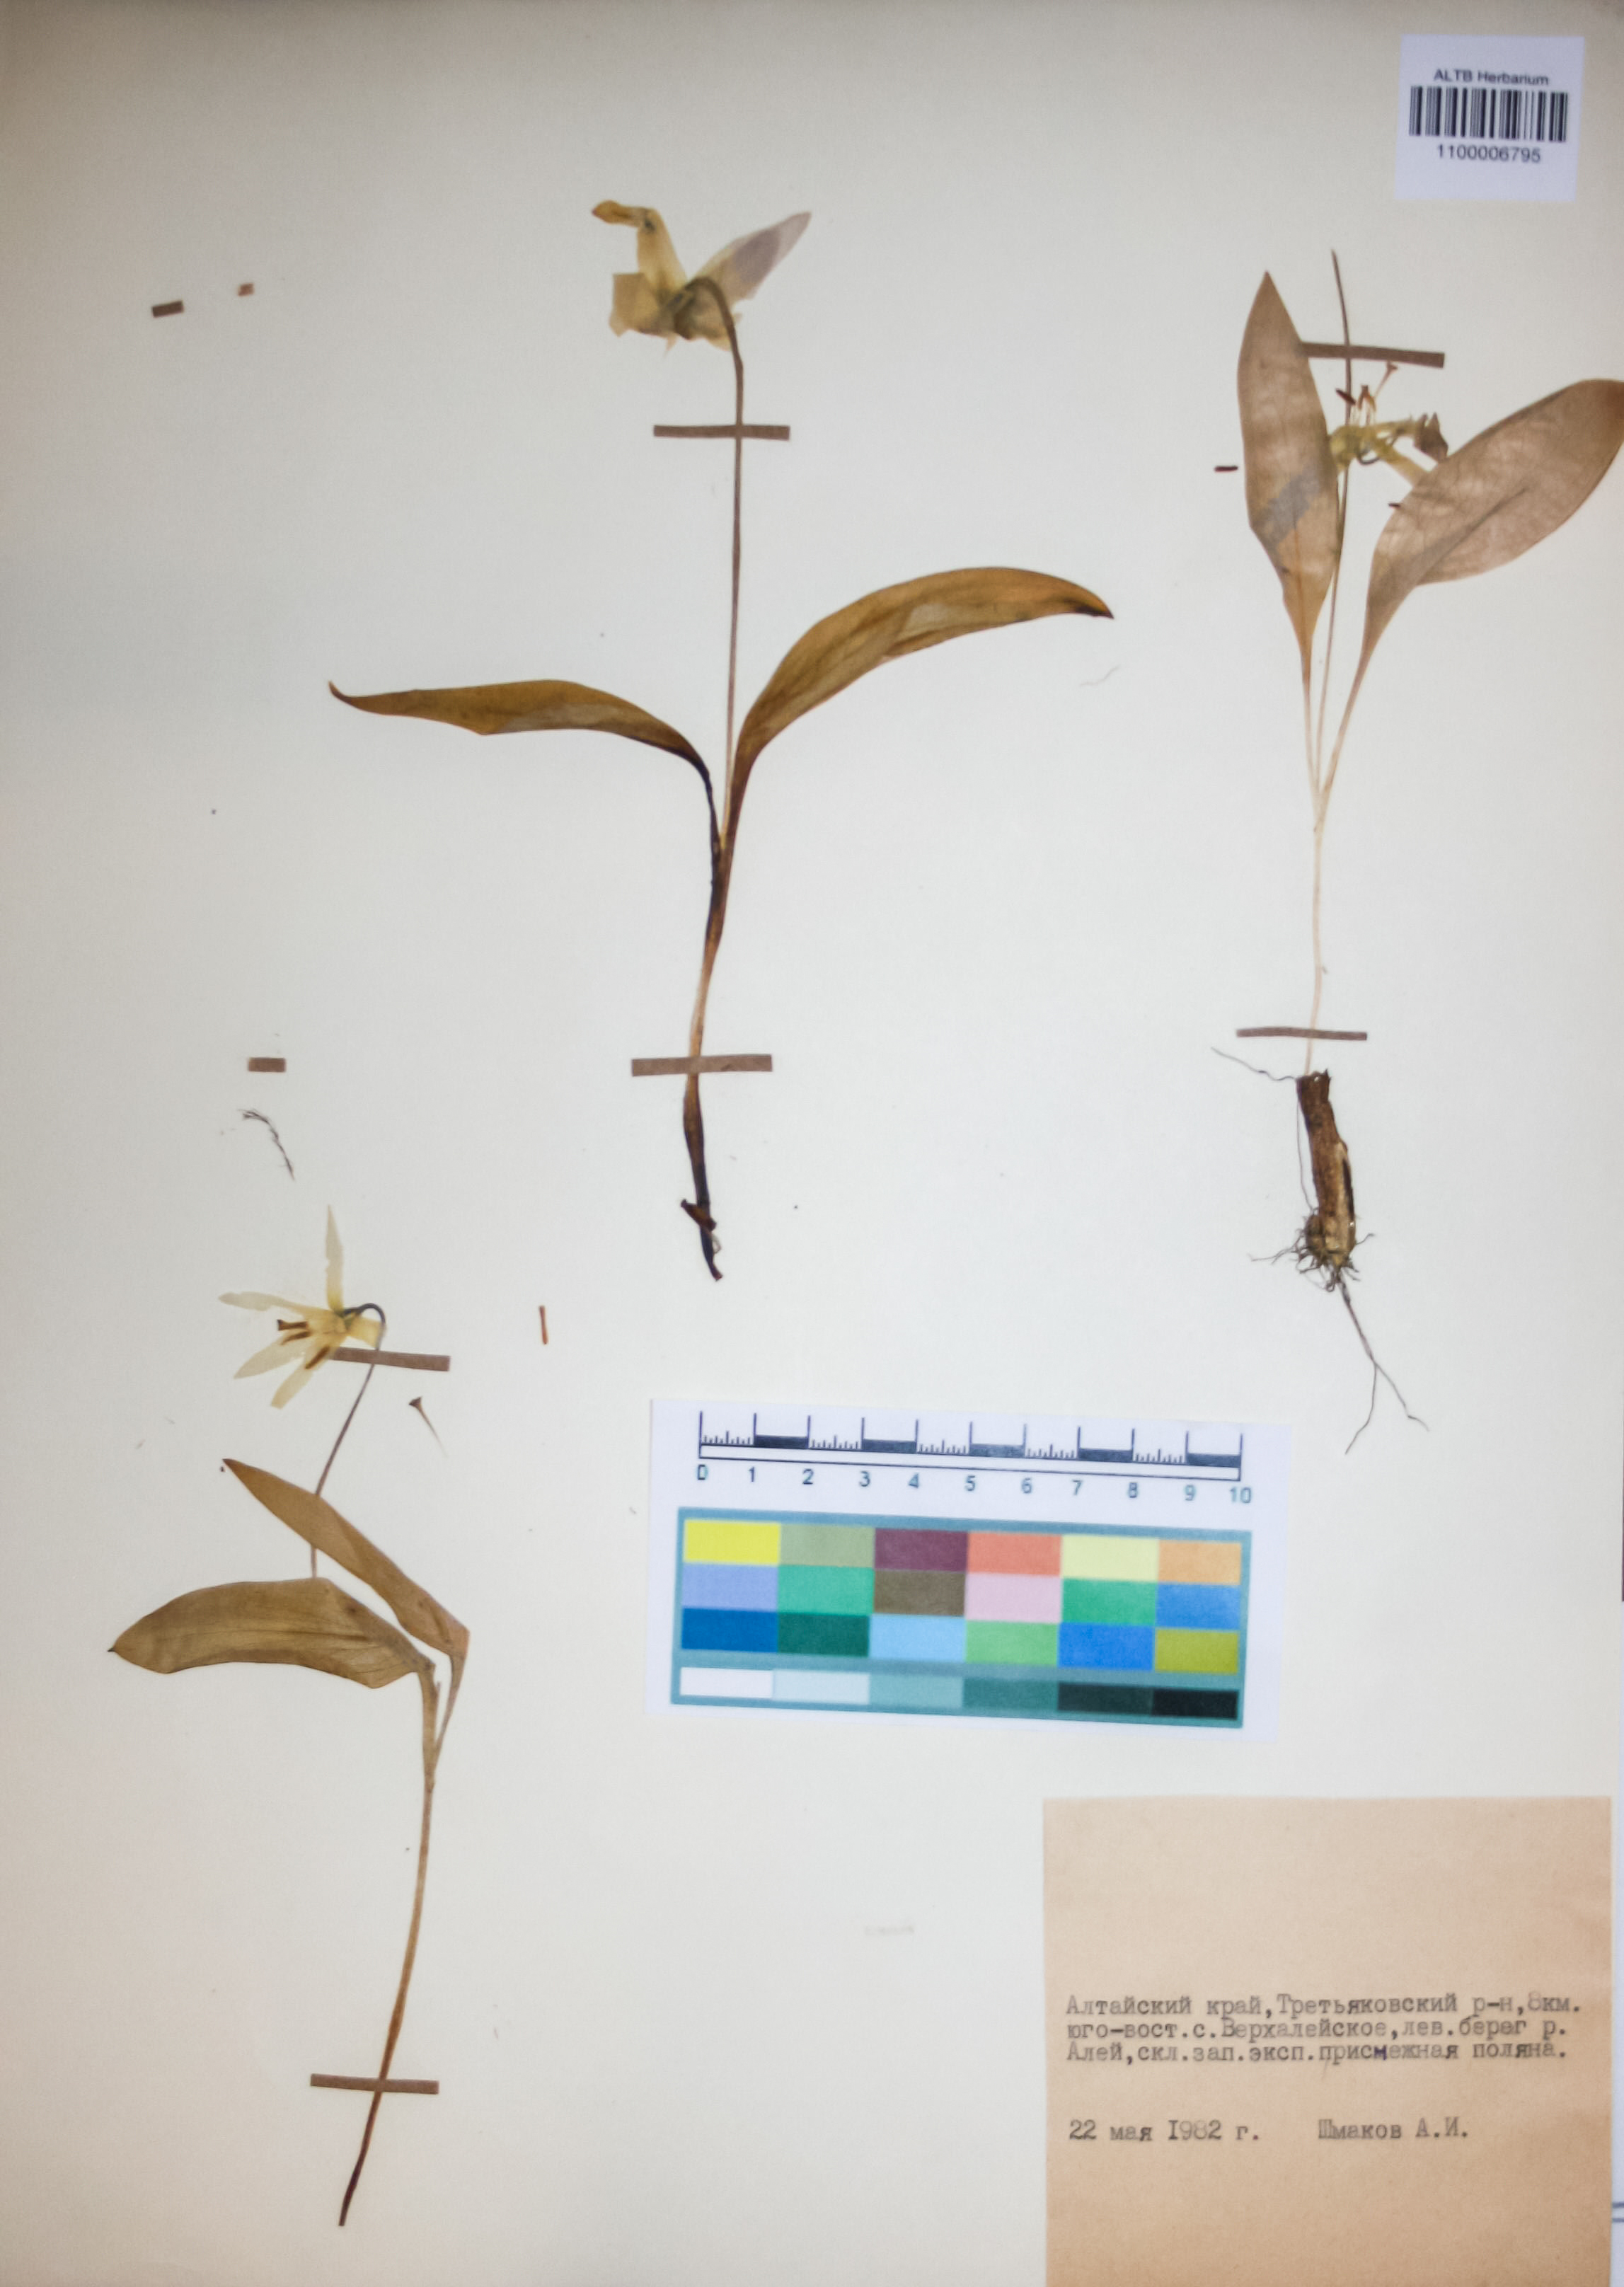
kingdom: Plantae
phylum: Tracheophyta
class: Liliopsida
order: Liliales
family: Liliaceae
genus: Erythronium
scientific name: Erythronium sibiricum
